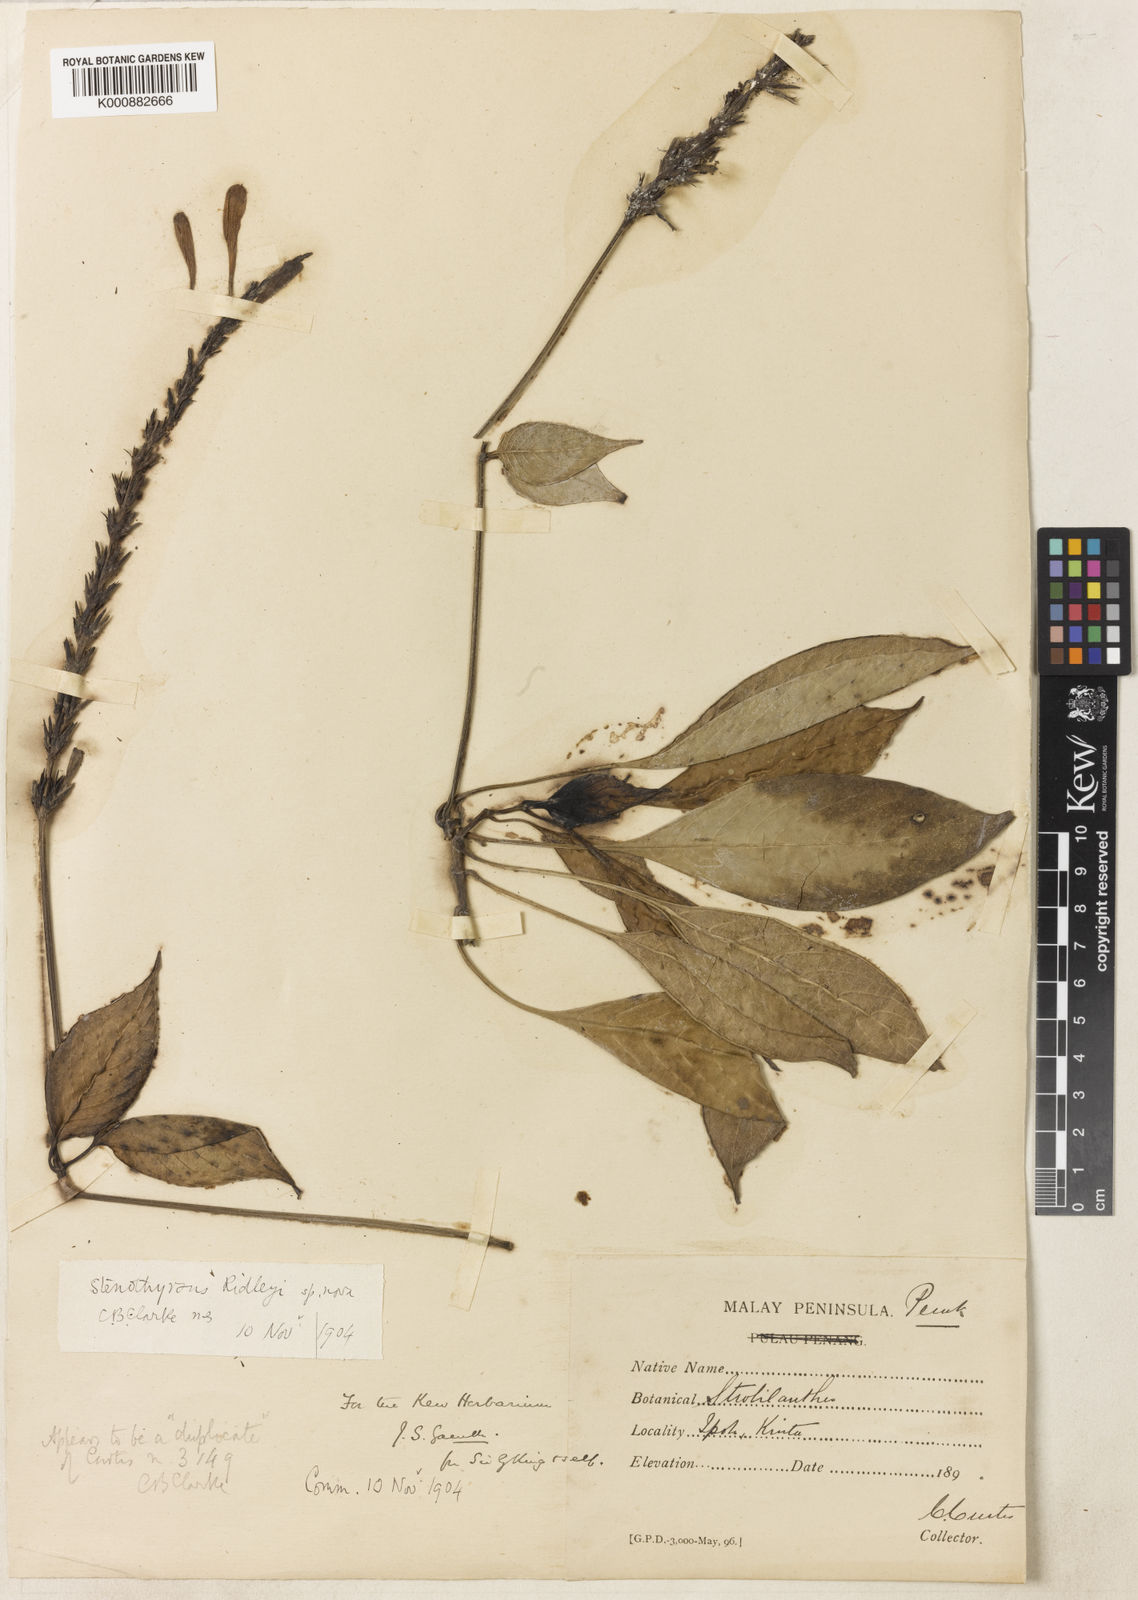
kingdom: Plantae
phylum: Tracheophyta
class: Magnoliopsida
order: Lamiales
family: Acanthaceae
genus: Stenothyrsus
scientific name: Stenothyrsus ridleyi
